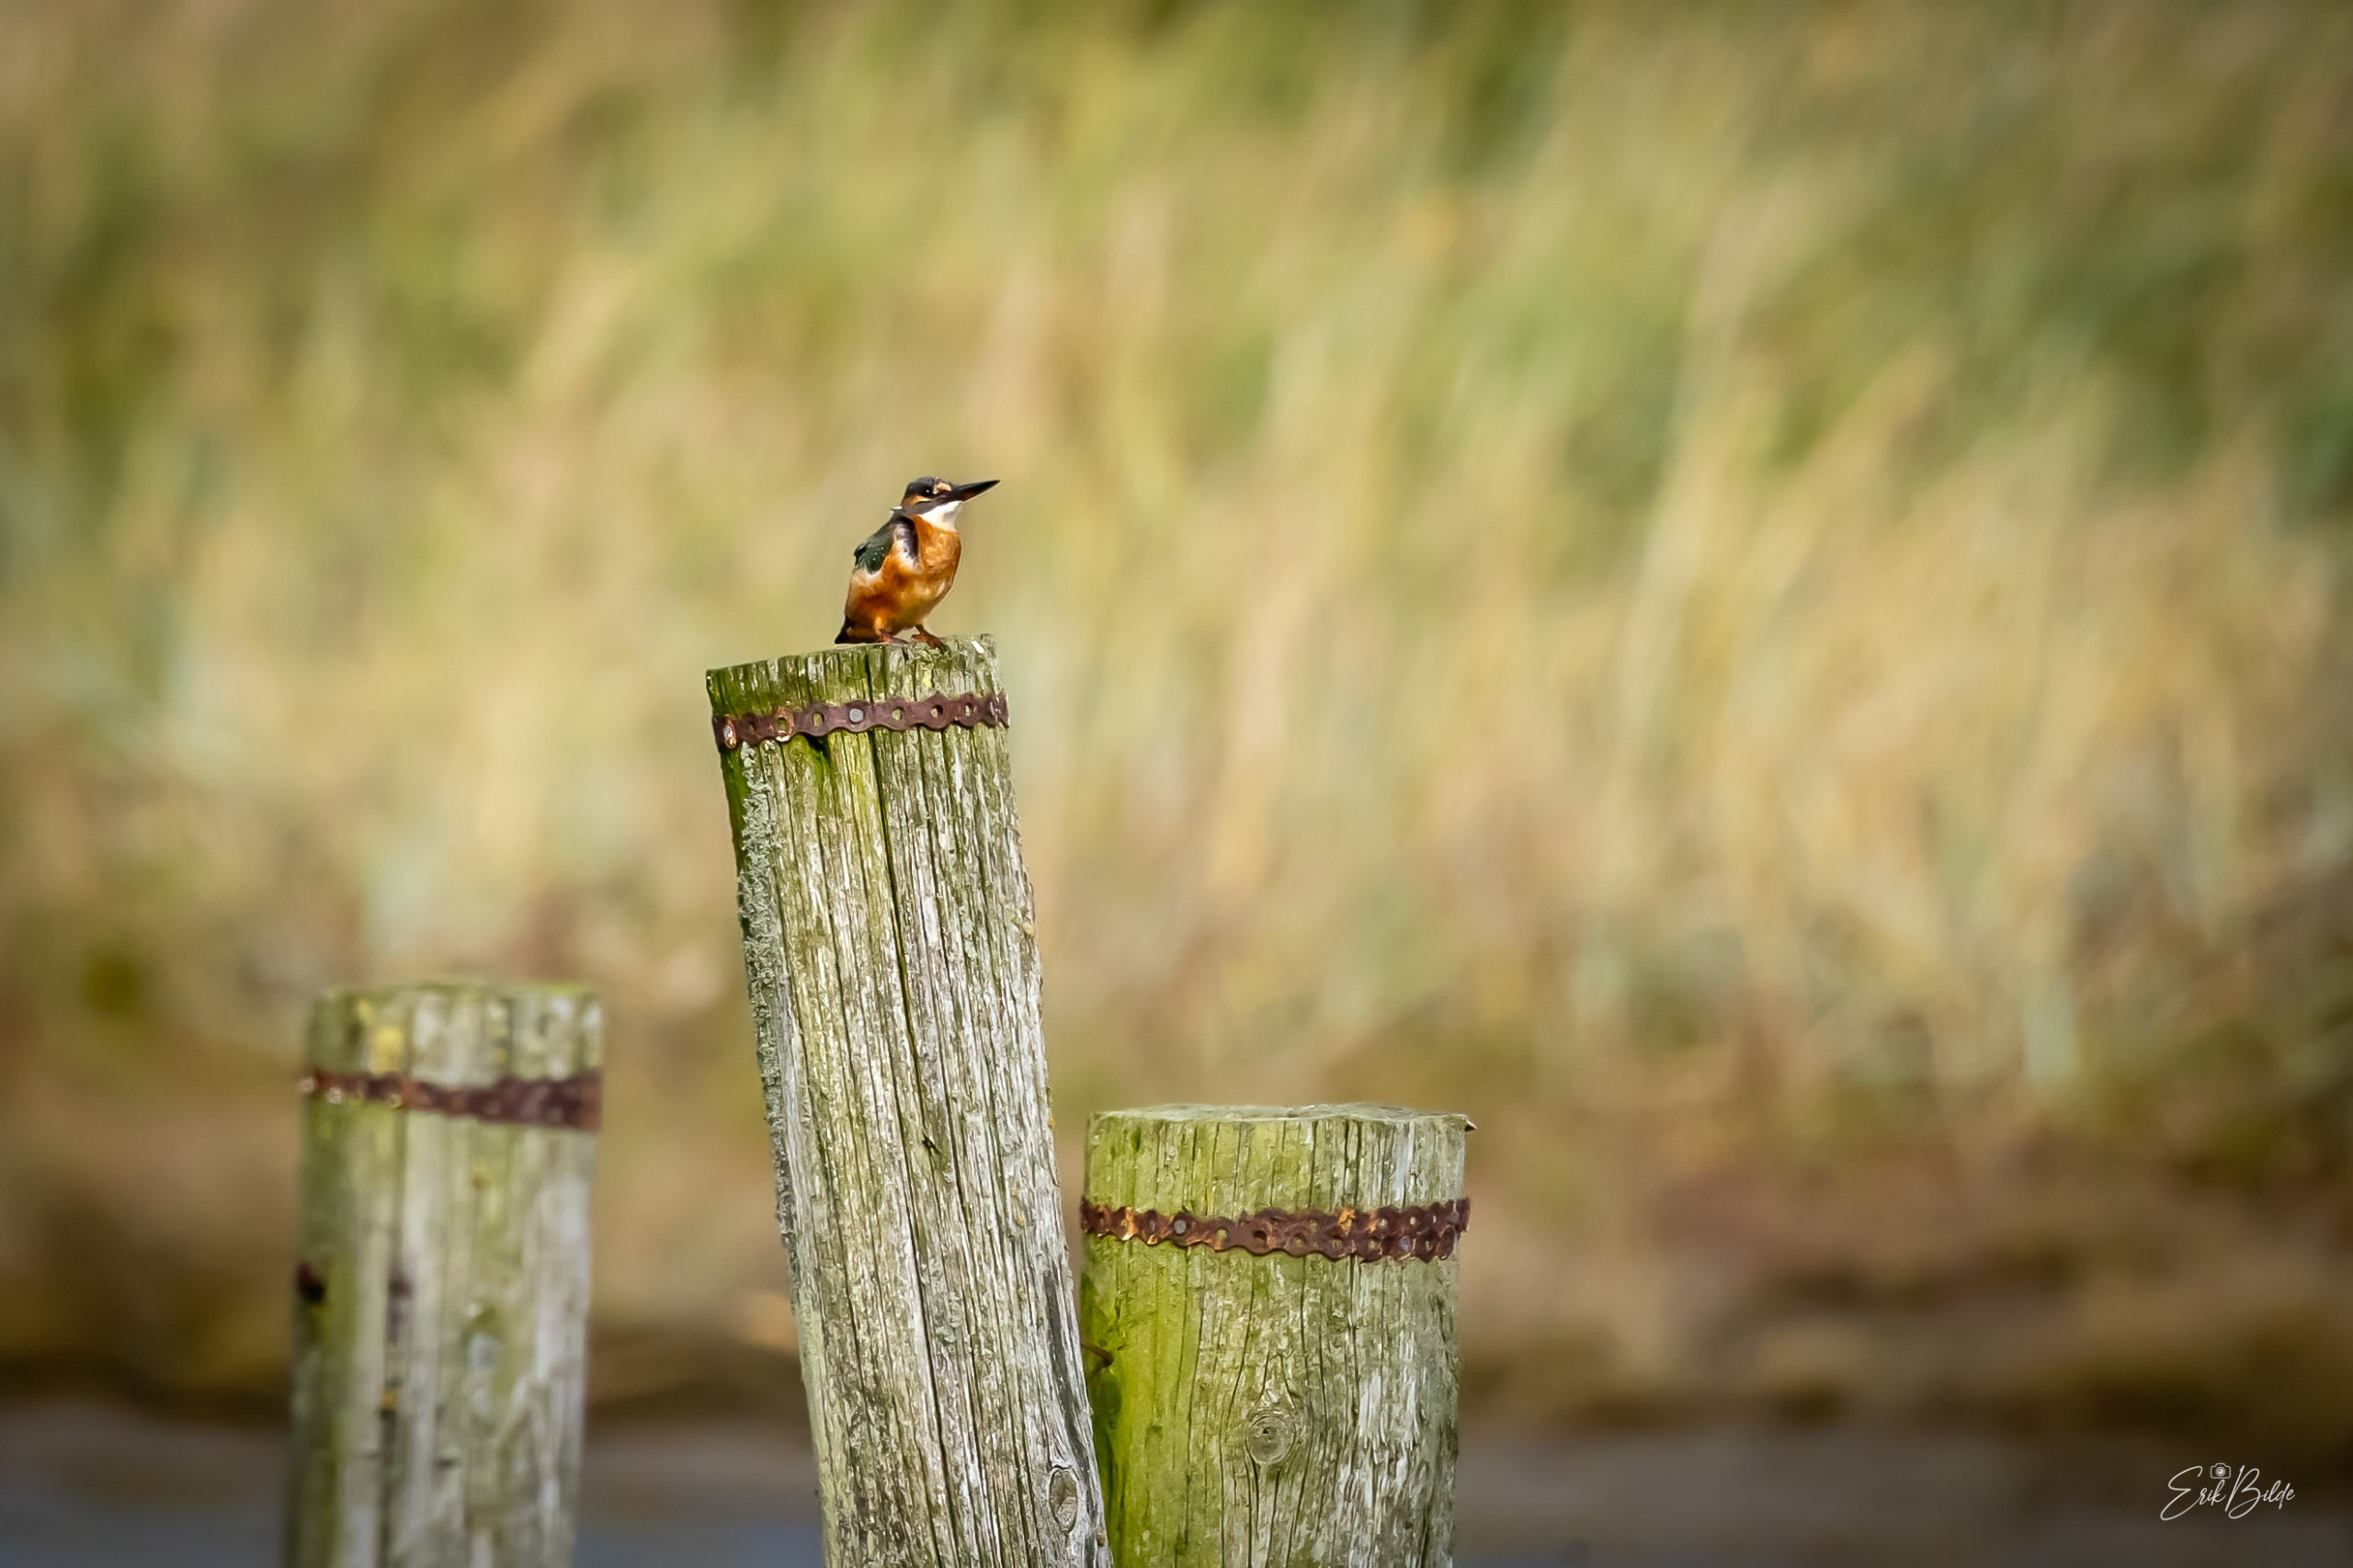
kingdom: Animalia
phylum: Chordata
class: Aves
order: Coraciiformes
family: Alcedinidae
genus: Alcedo
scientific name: Alcedo atthis
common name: Isfugl
